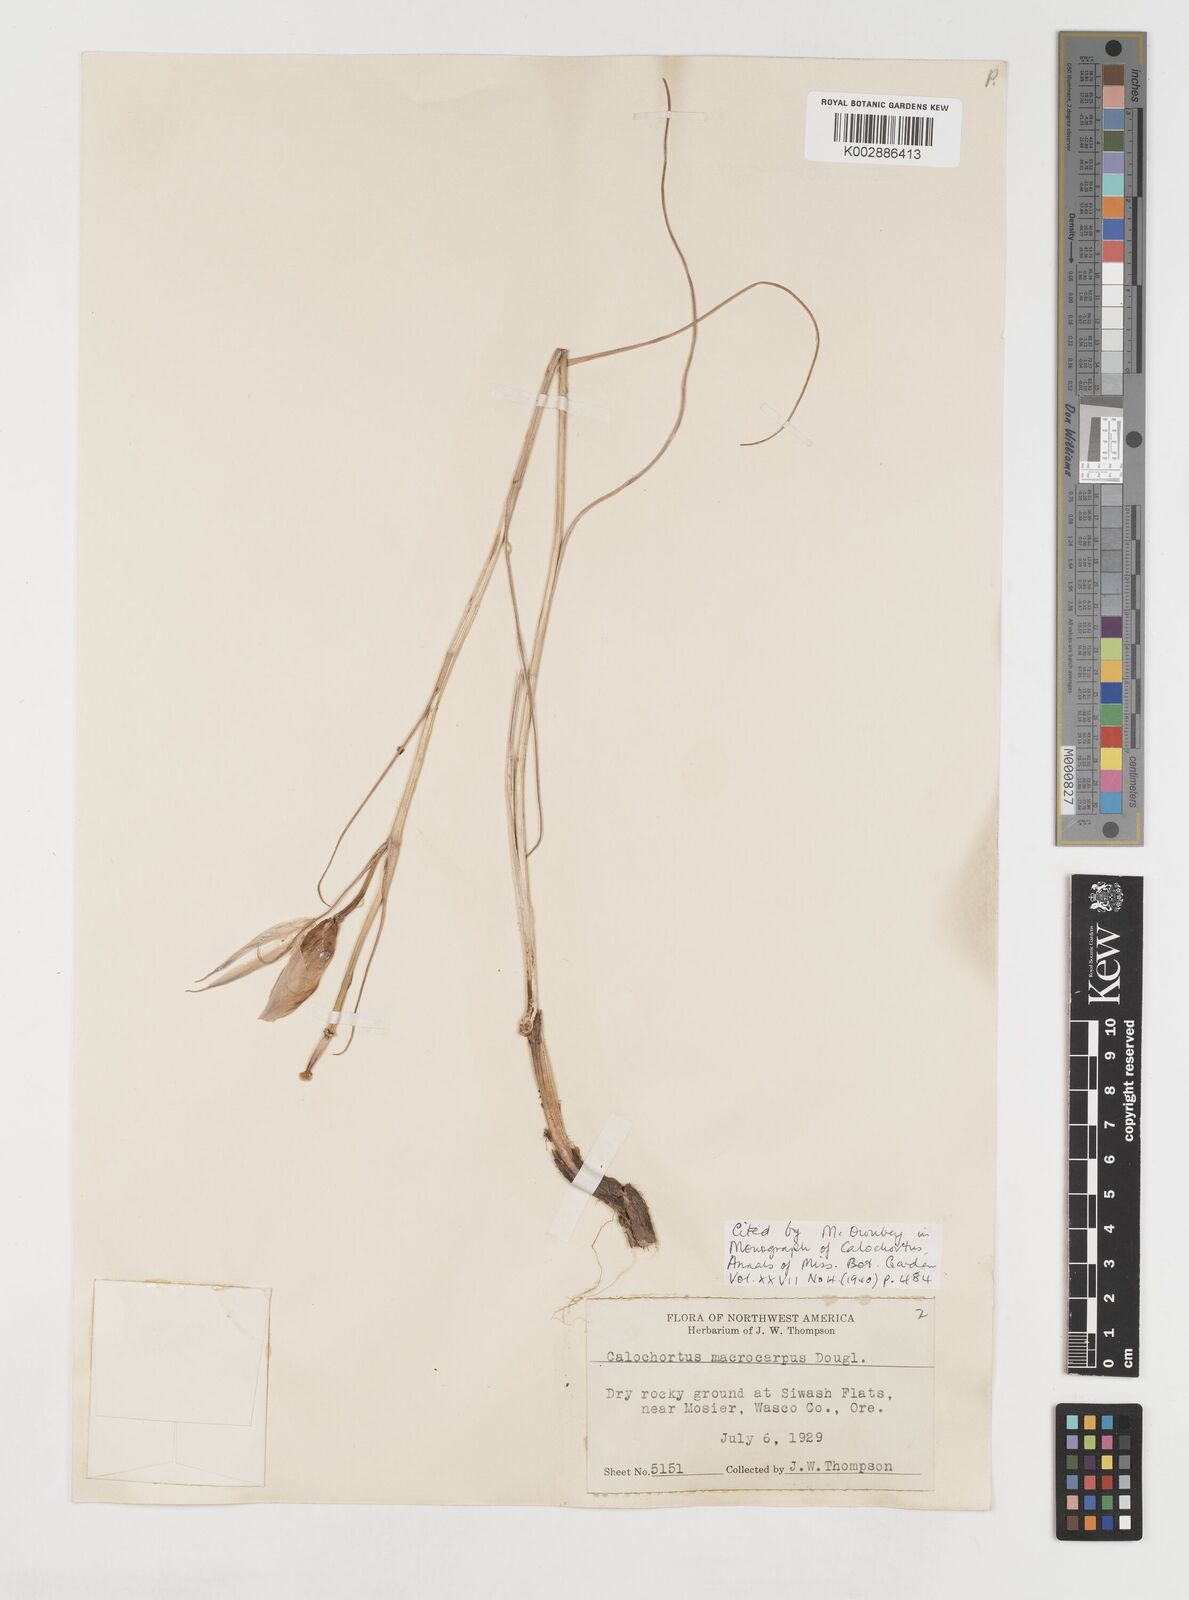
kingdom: Plantae
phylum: Tracheophyta
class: Liliopsida
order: Liliales
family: Liliaceae
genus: Calochortus
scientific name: Calochortus macrocarpus
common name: Green-band mariposa lily
